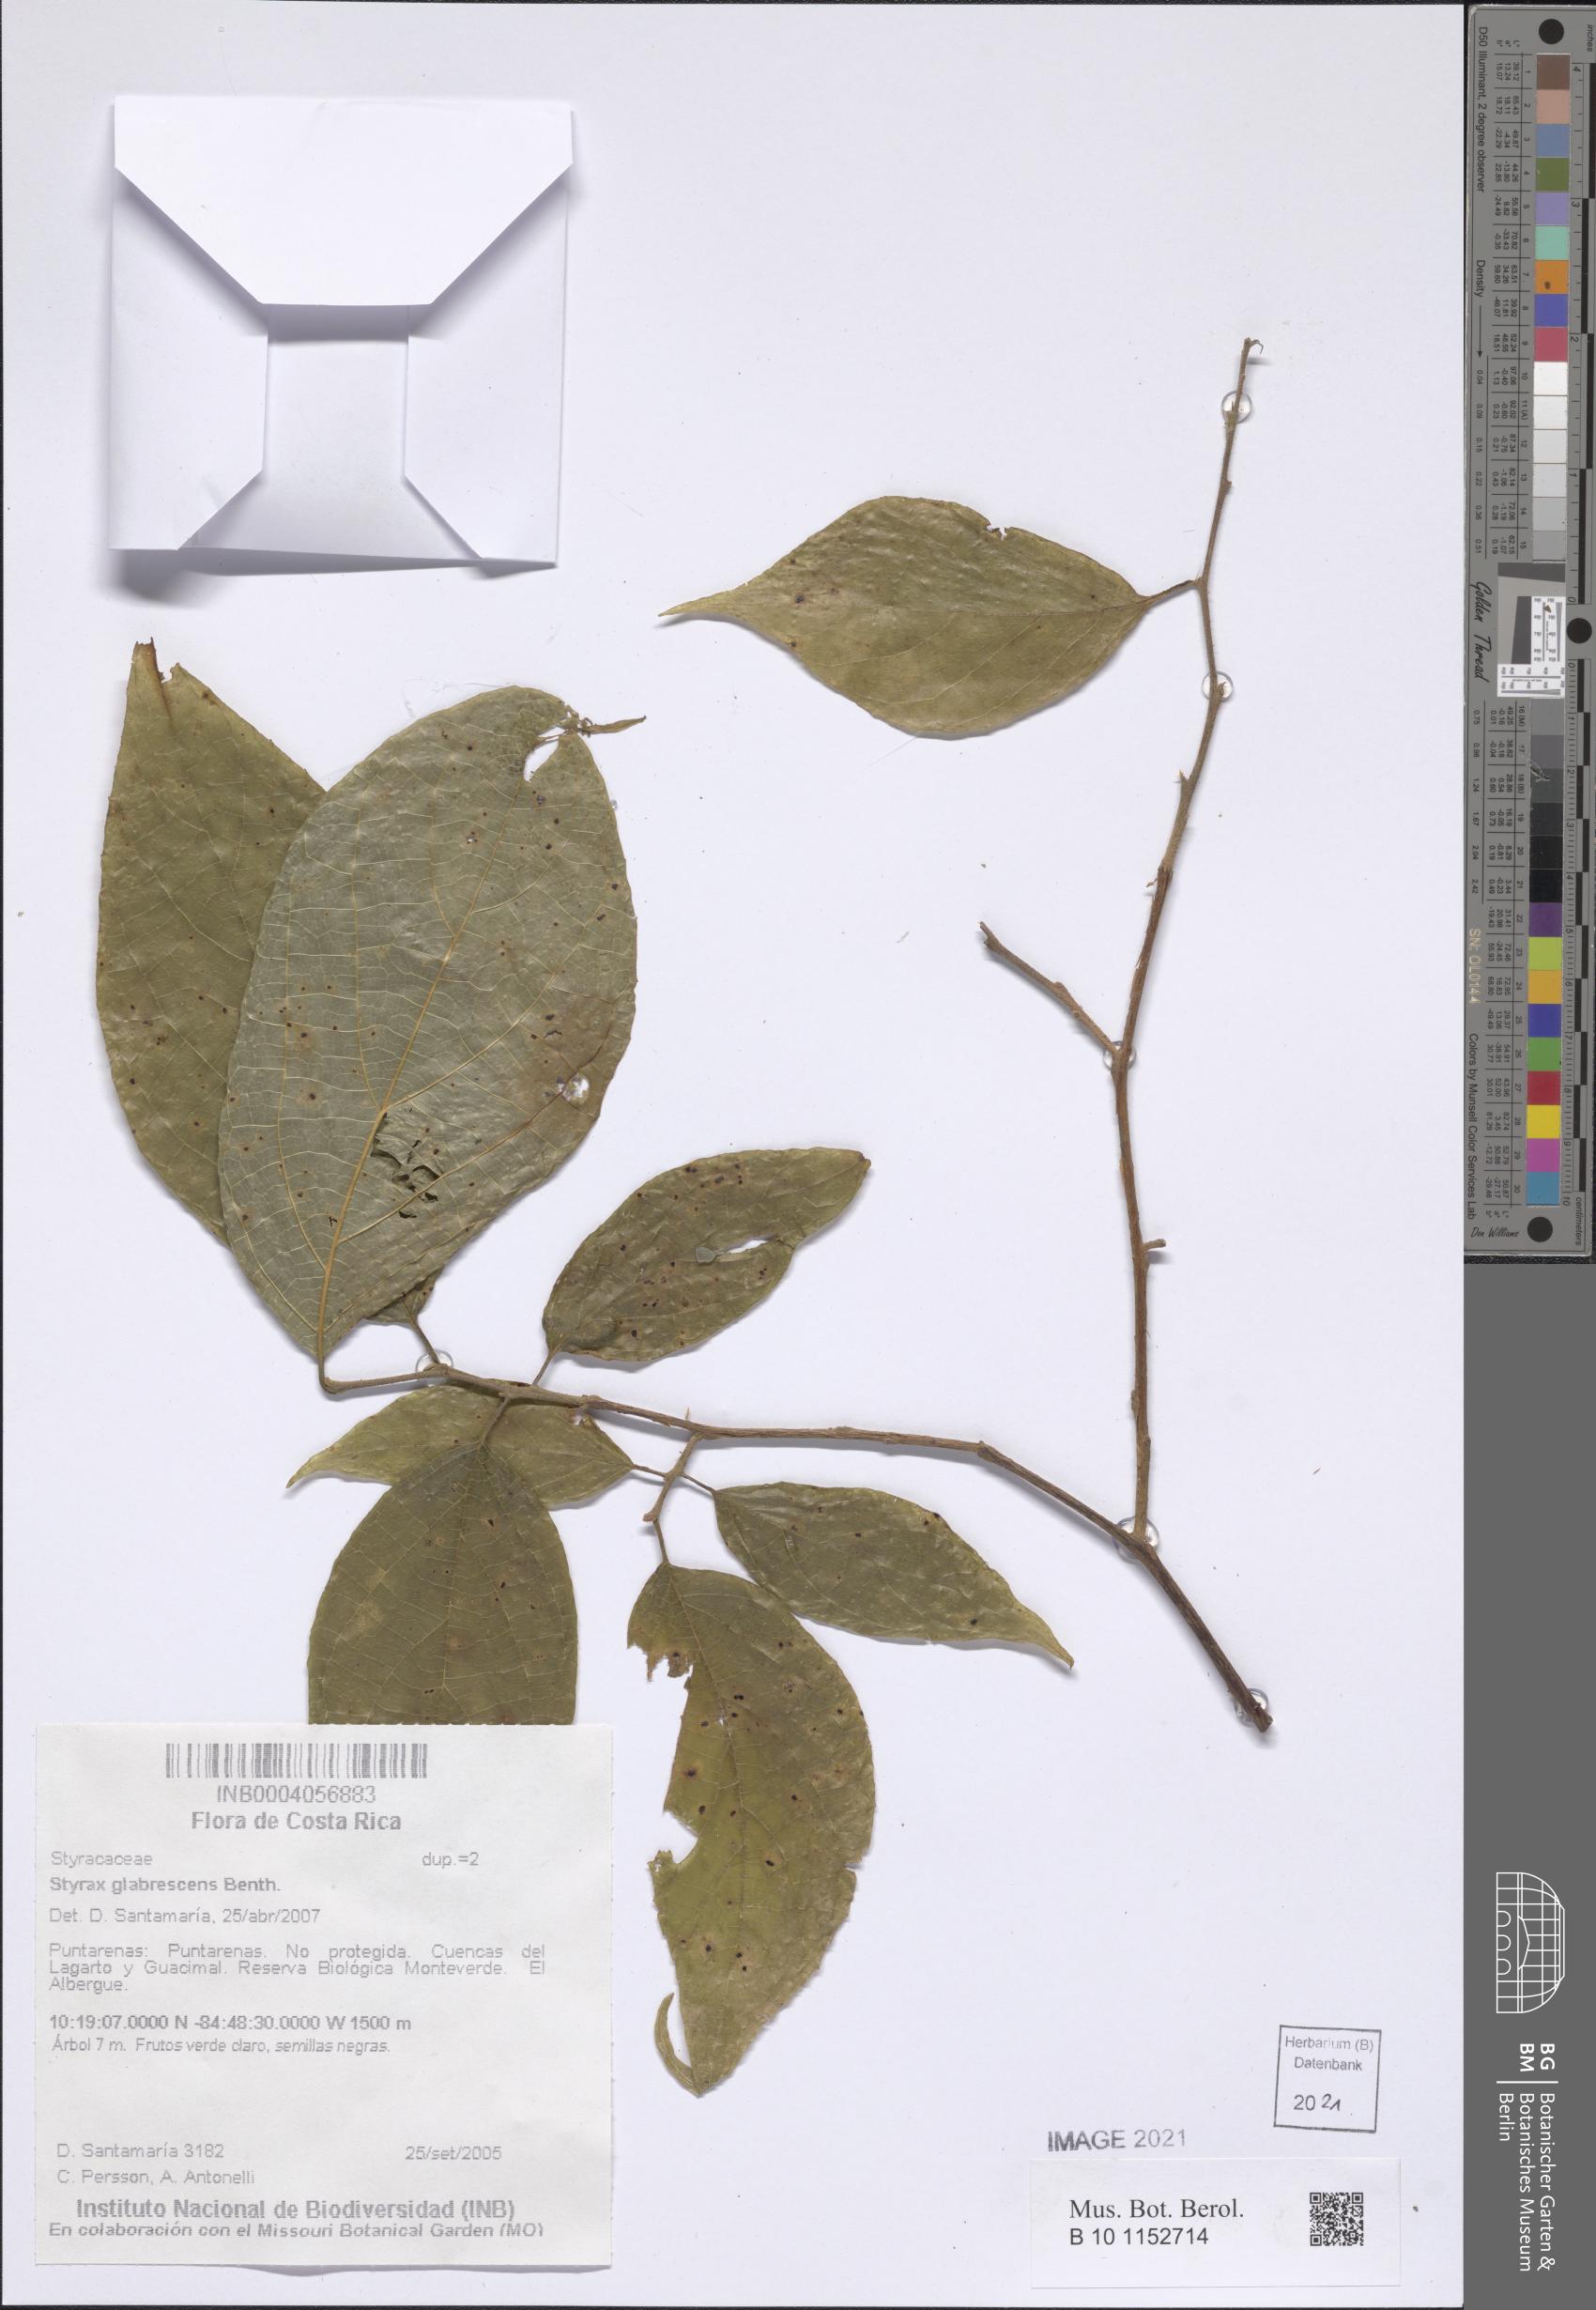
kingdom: Plantae
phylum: Tracheophyta
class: Magnoliopsida
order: Ericales
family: Styracaceae
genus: Styrax
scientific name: Styrax glabrescens
